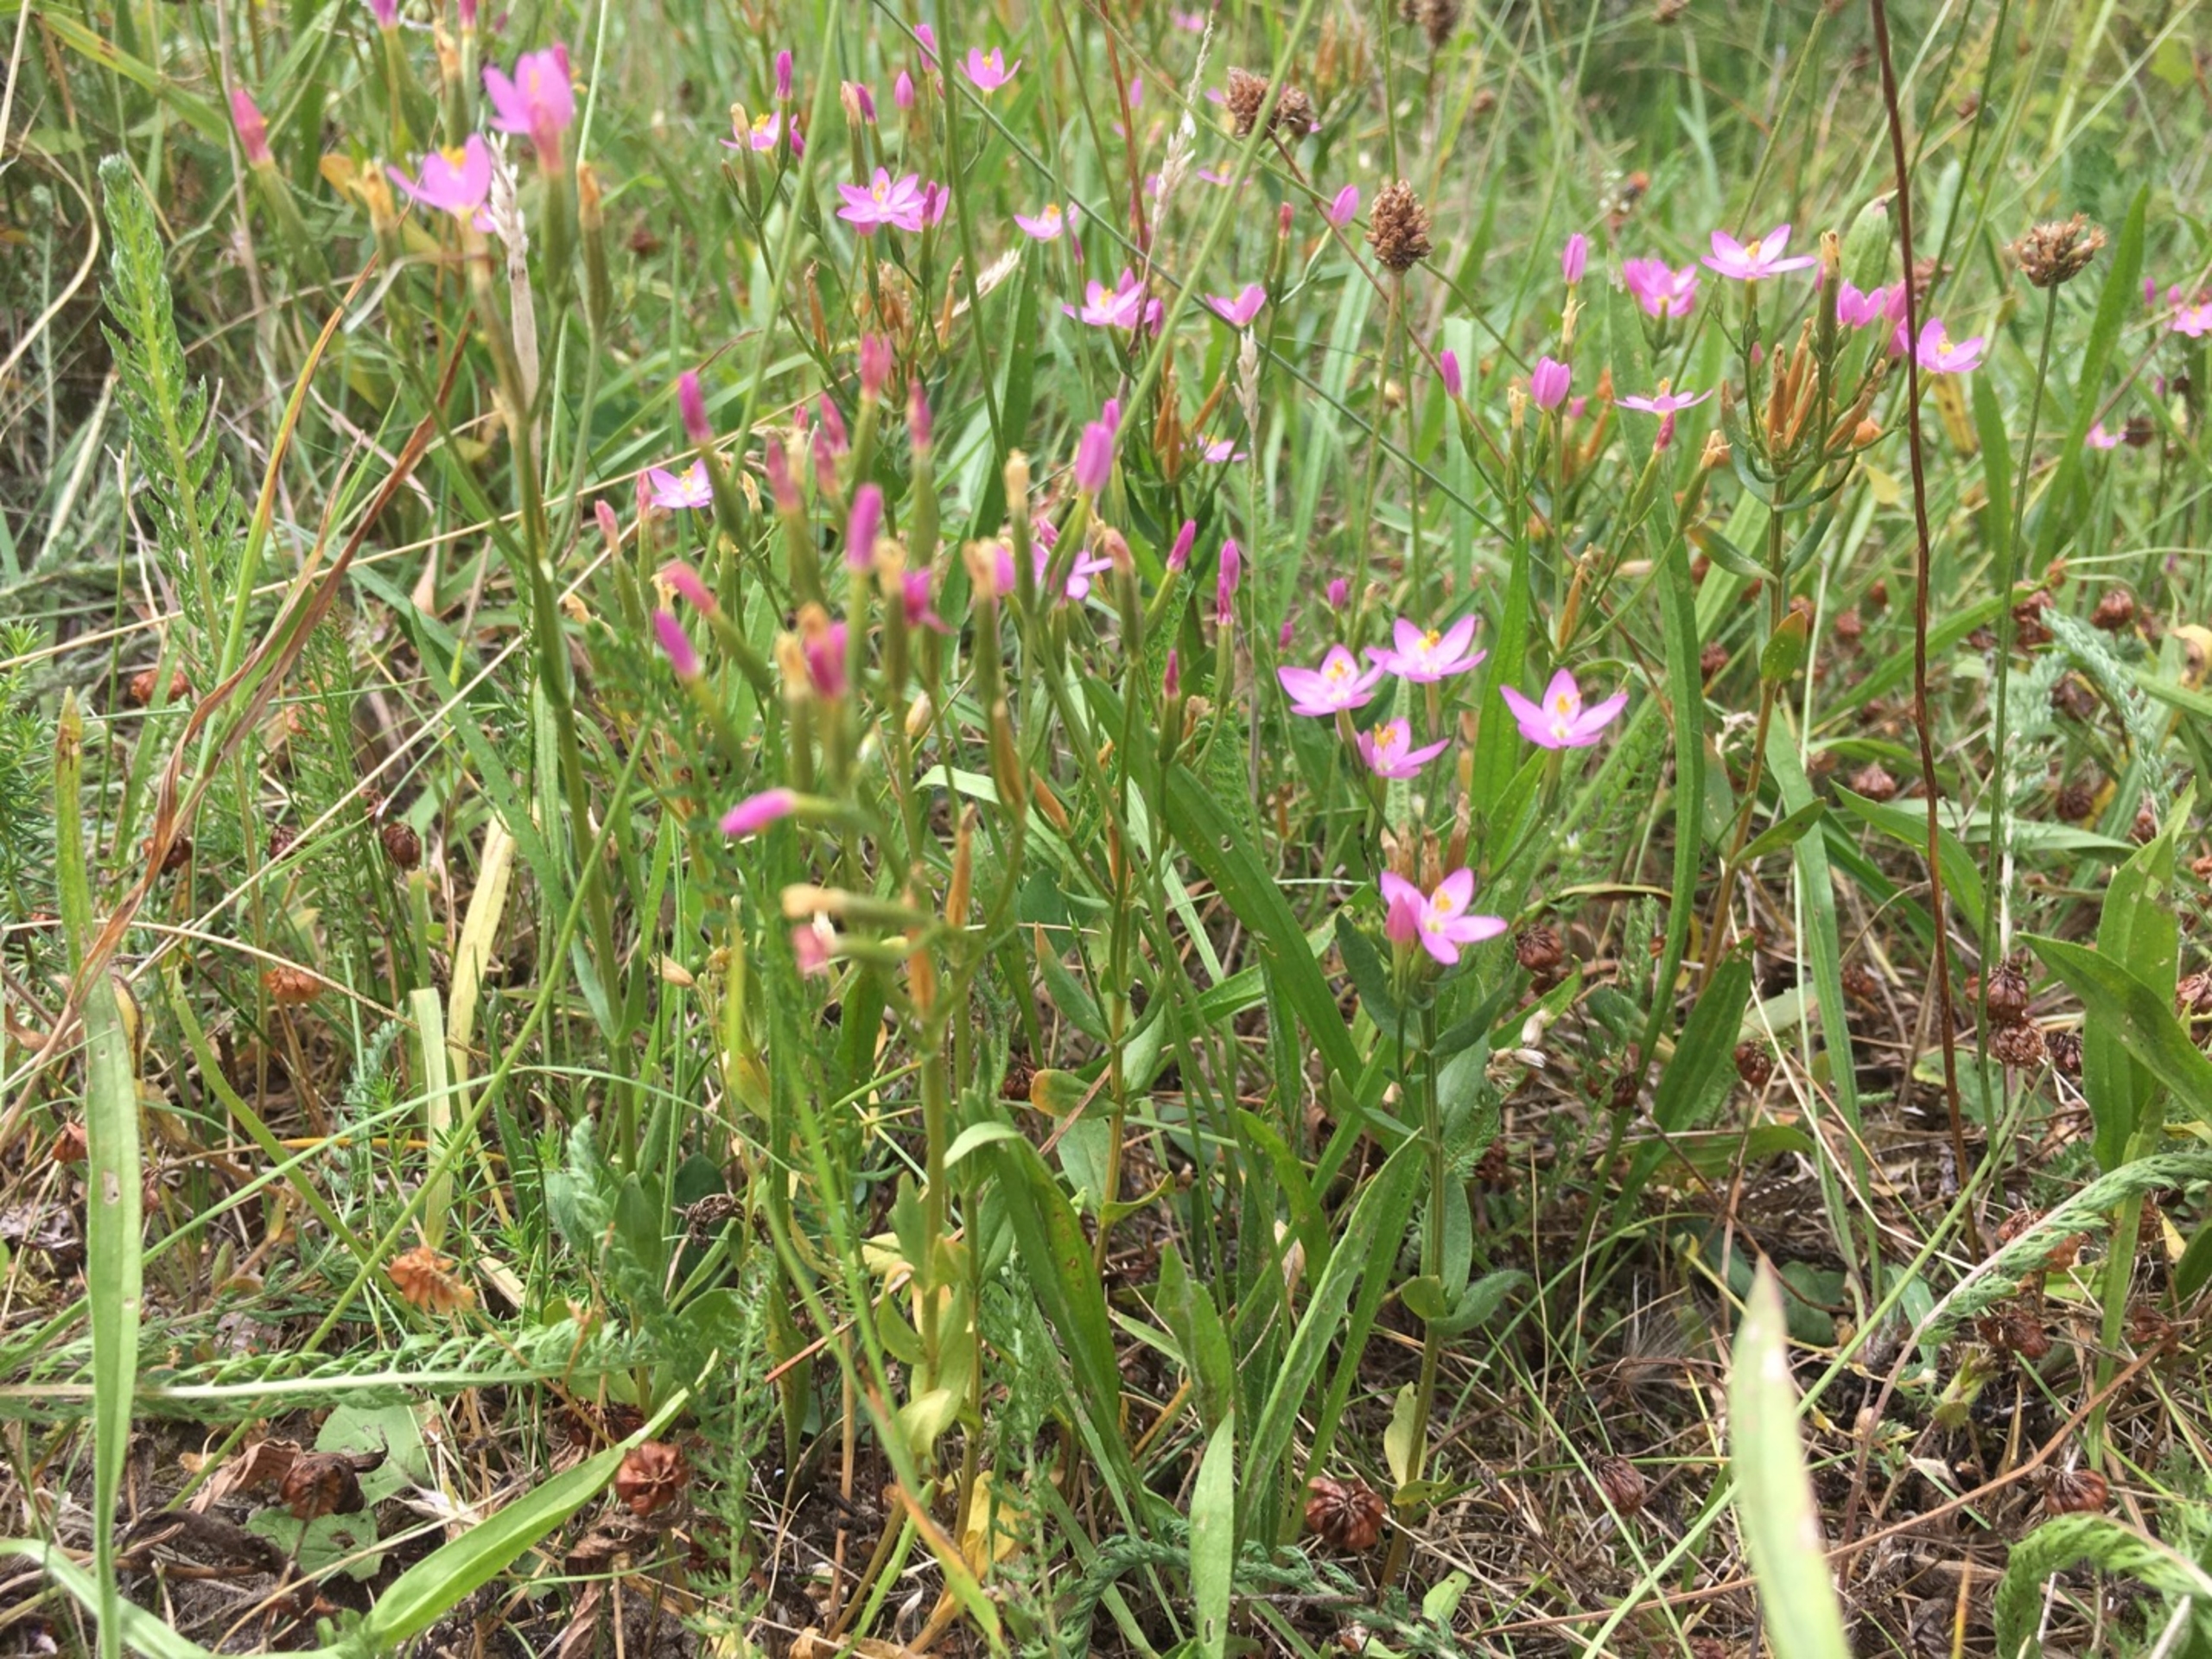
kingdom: Plantae
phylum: Tracheophyta
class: Magnoliopsida
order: Gentianales
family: Gentianaceae
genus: Centaurium
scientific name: Centaurium erythraea
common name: Mark-tusindgylden
